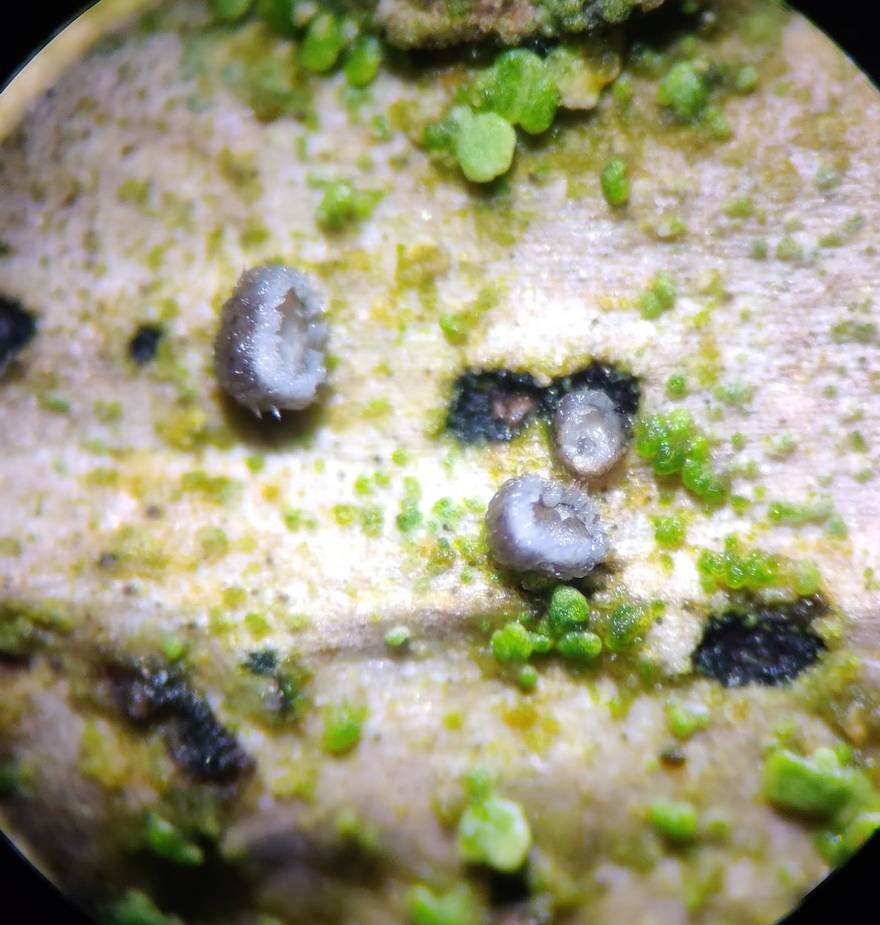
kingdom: Fungi
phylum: Basidiomycota
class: Agaricomycetes
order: Agaricales
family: Niaceae
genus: Lachnella
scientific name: Lachnella alboviolascens
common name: grå frynserede
